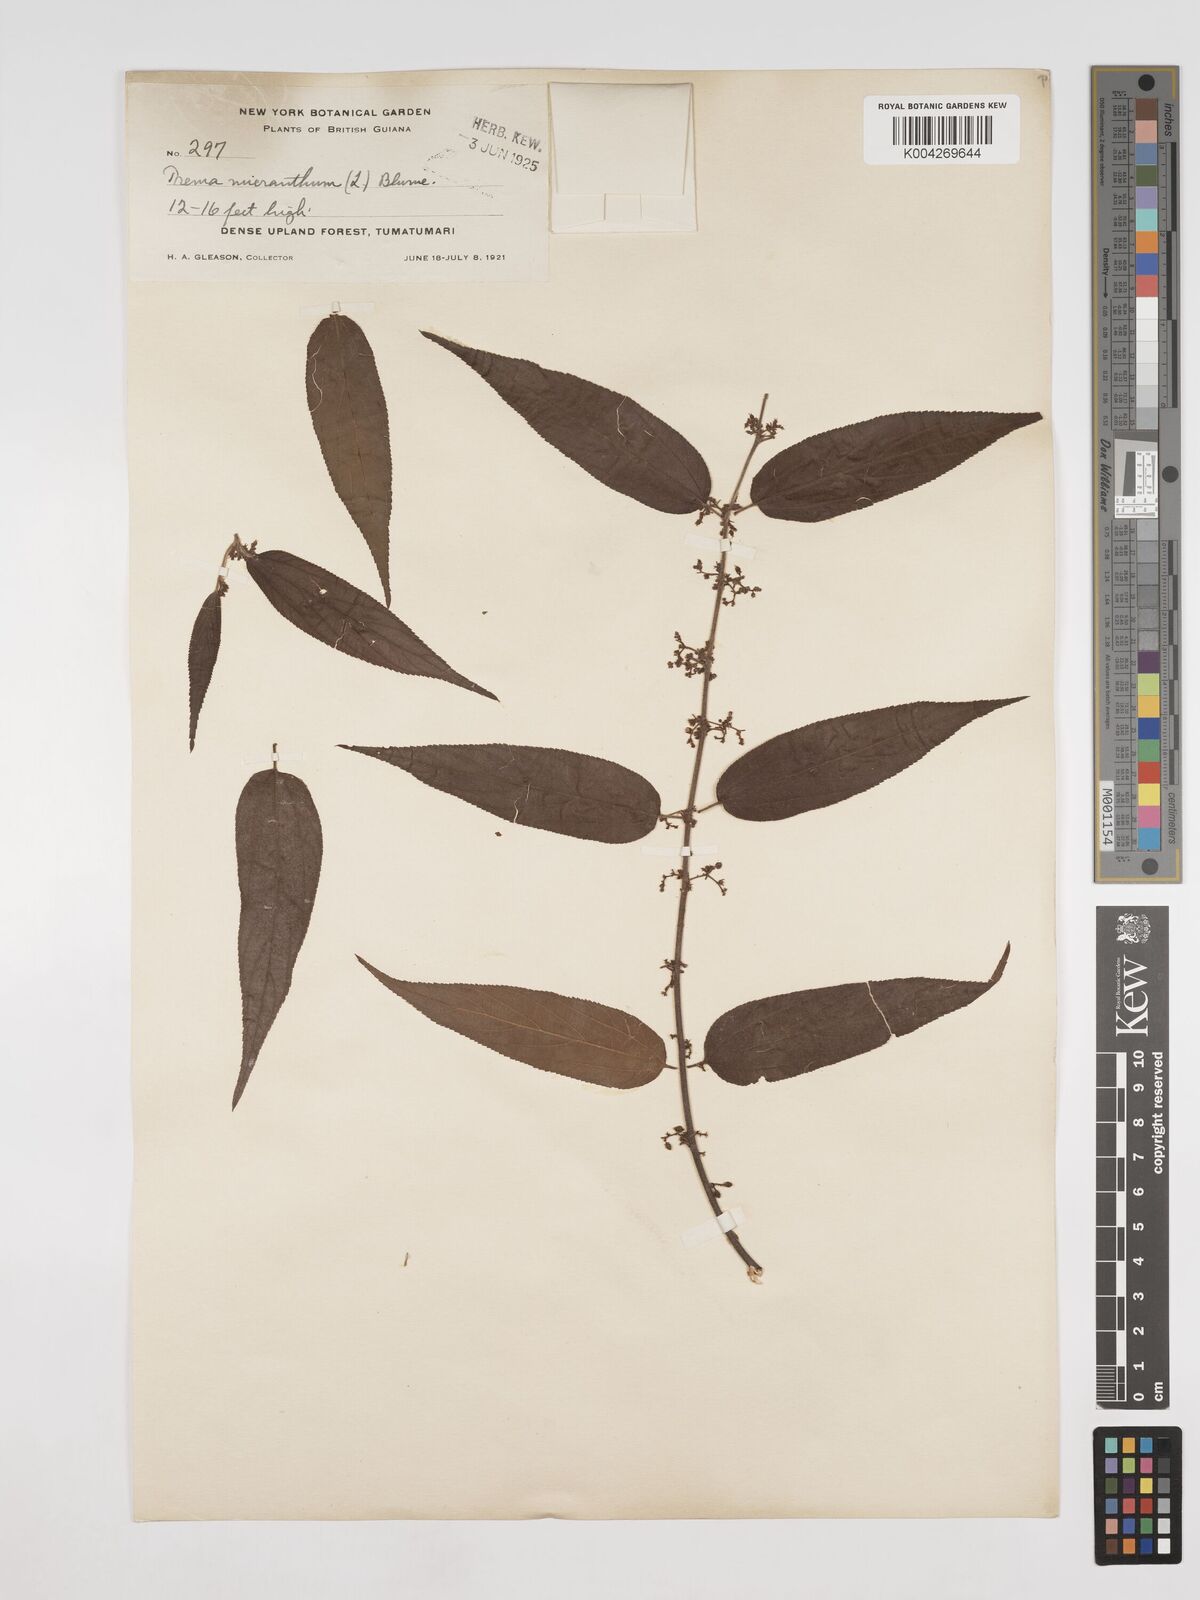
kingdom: Plantae
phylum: Tracheophyta
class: Magnoliopsida
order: Rosales
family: Cannabaceae
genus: Trema
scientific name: Trema micranthum
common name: Jamaican nettletree
